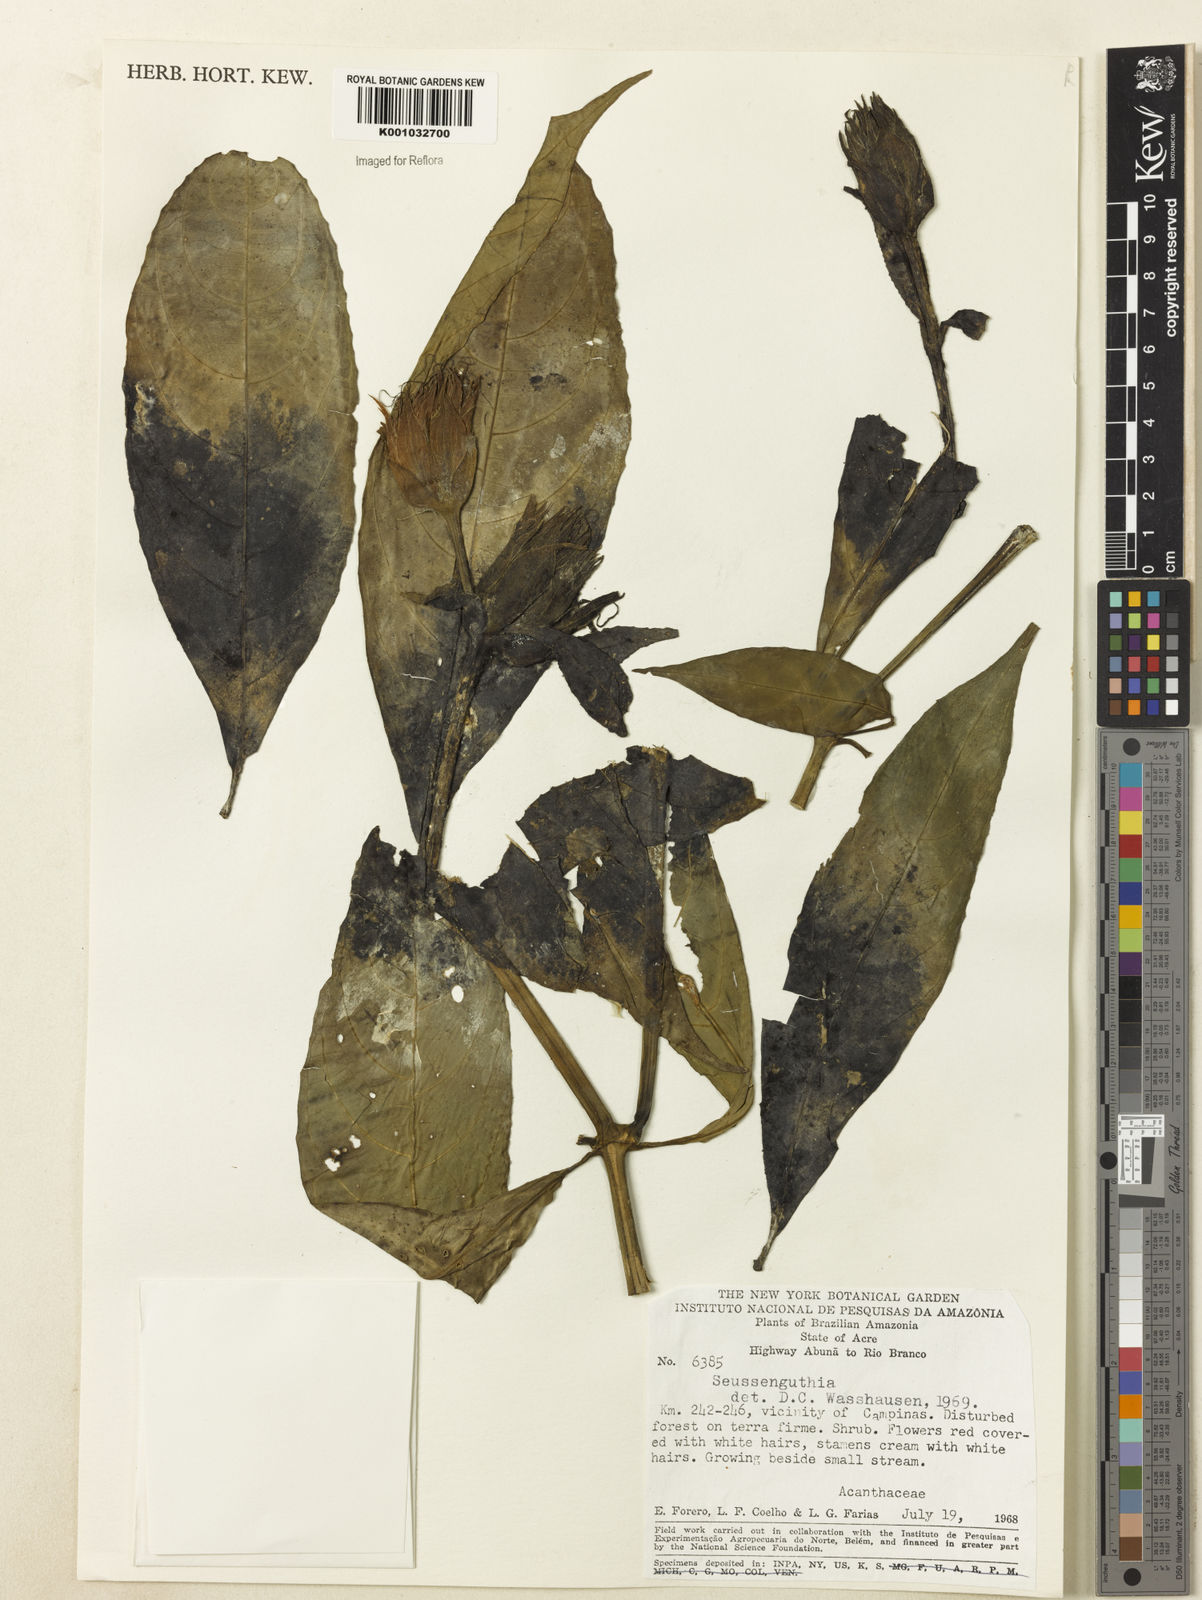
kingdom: Plantae
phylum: Tracheophyta
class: Magnoliopsida
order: Lamiales
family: Acanthaceae
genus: Suessenguthia
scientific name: Suessenguthia trochilophila
